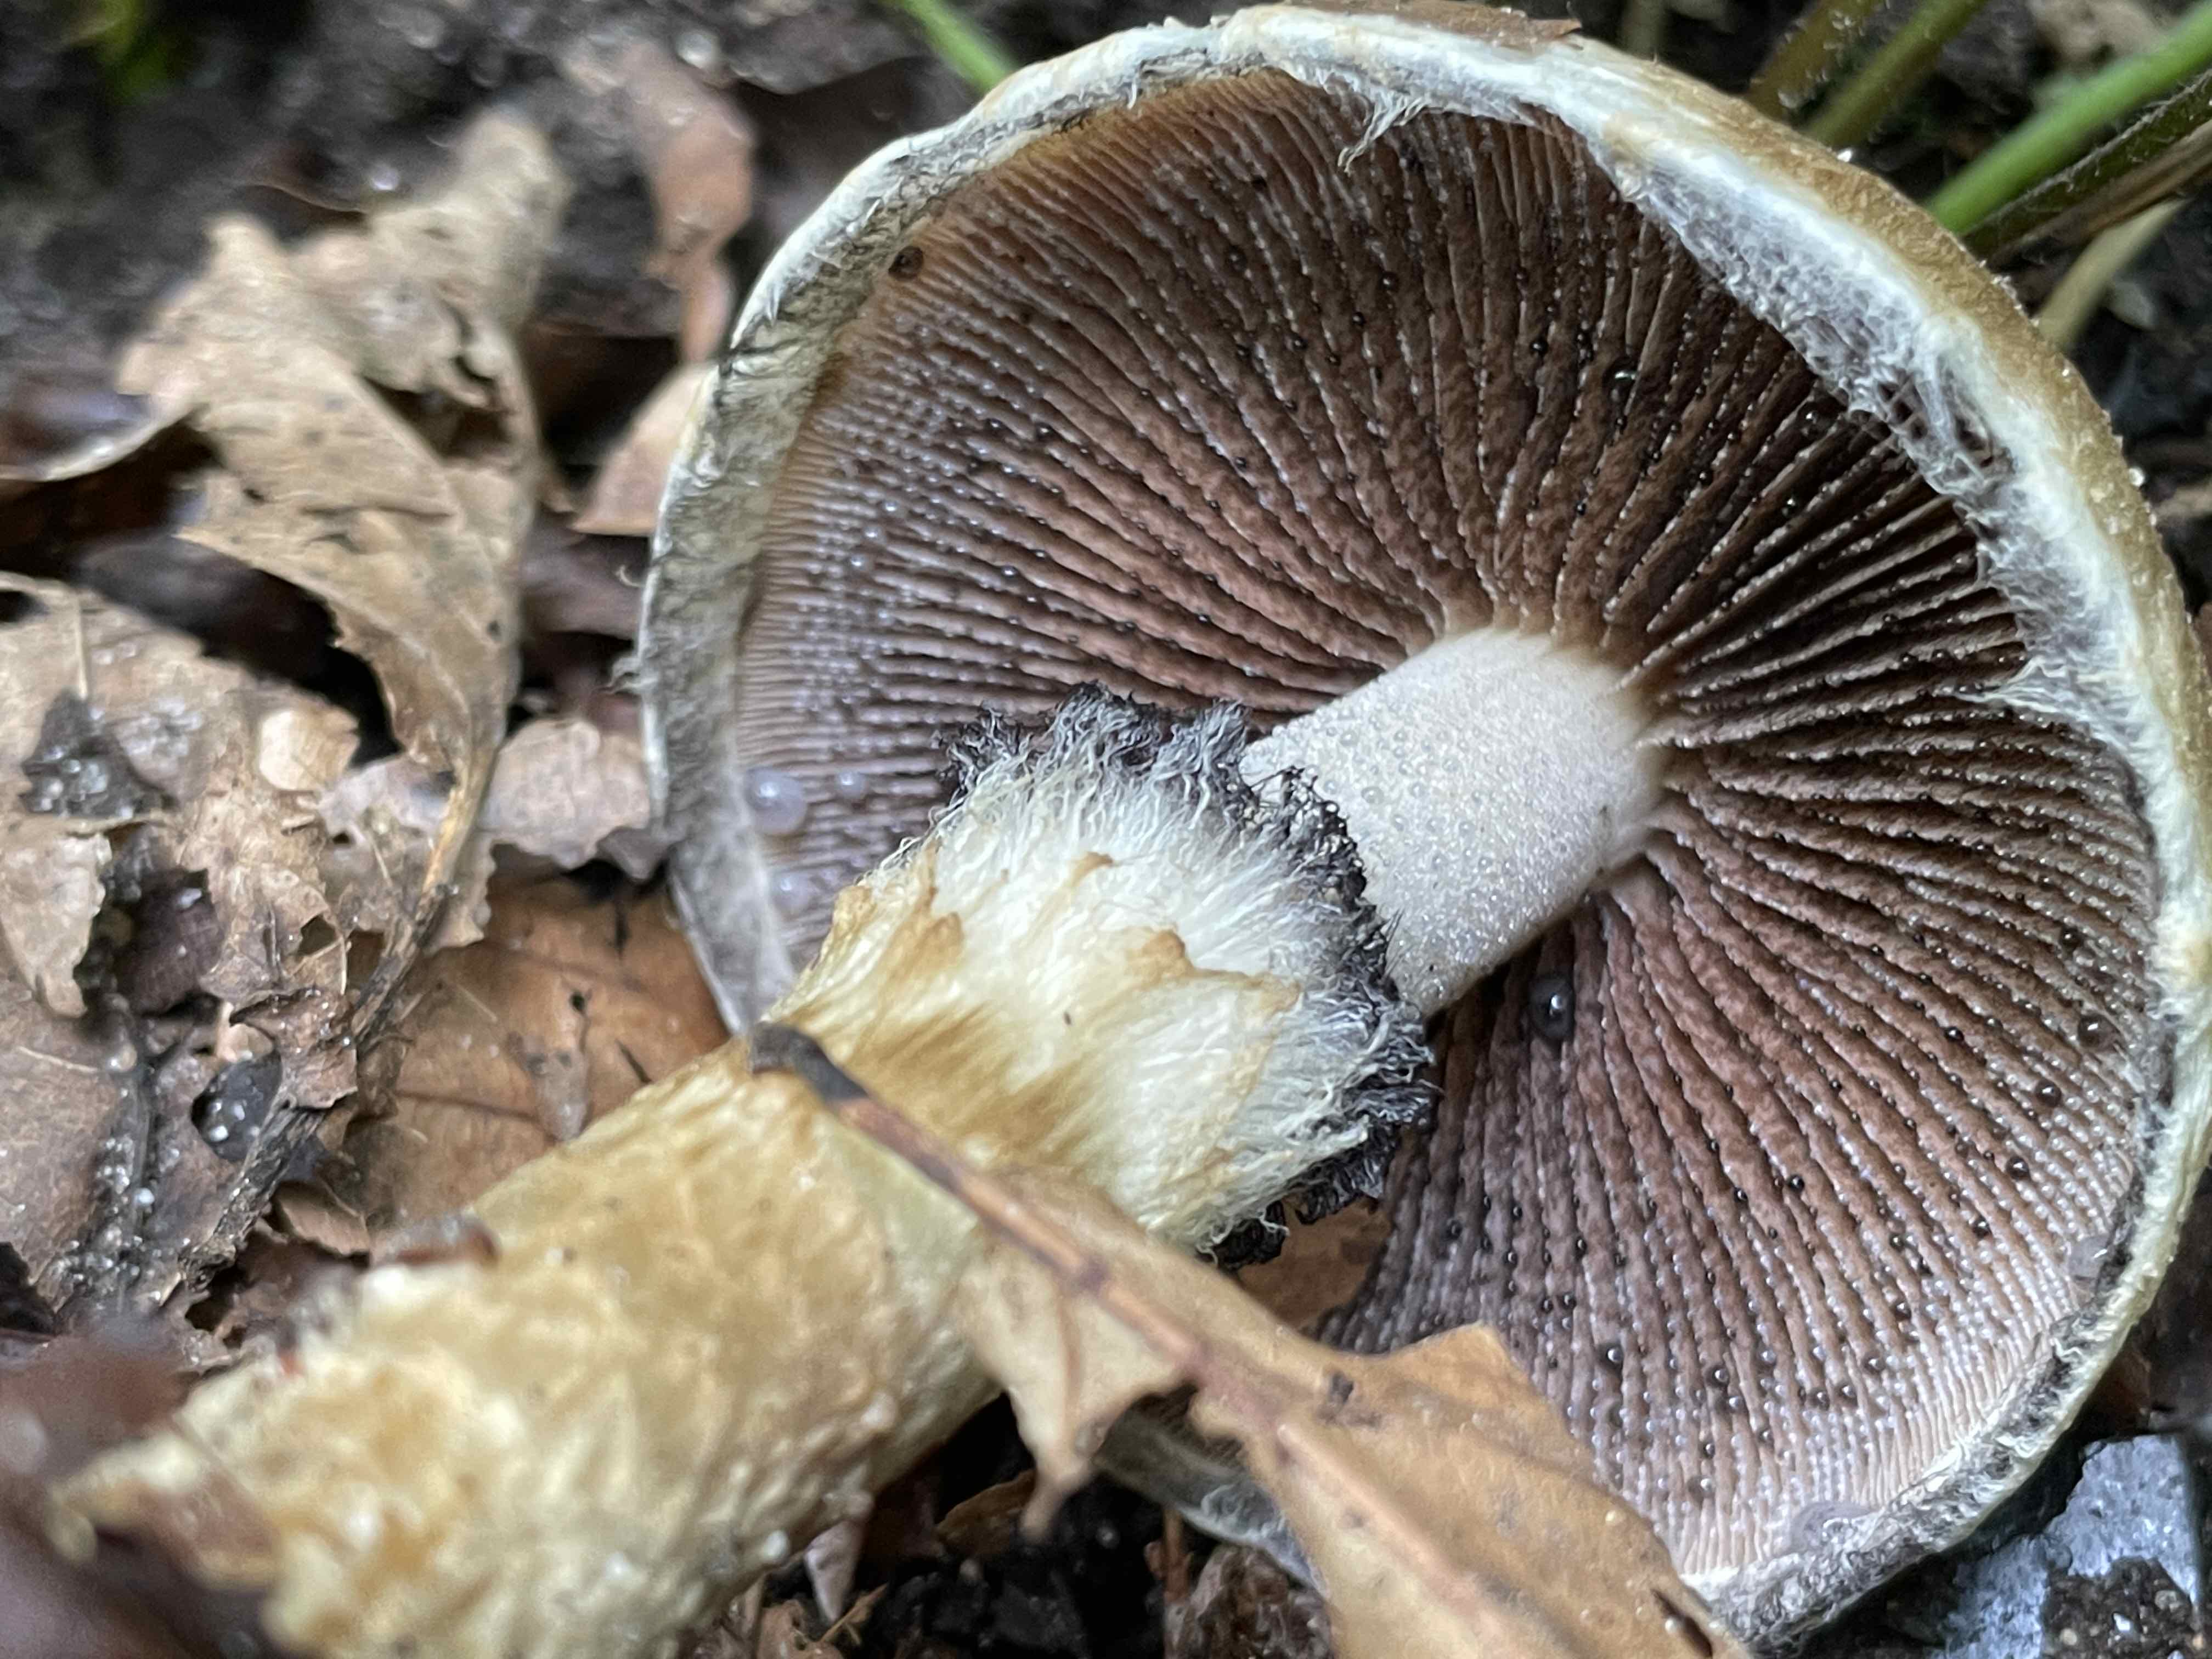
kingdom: Fungi
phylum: Basidiomycota
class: Agaricomycetes
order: Agaricales
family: Psathyrellaceae
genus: Lacrymaria
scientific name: Lacrymaria lacrymabunda
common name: grædende mørkhat
